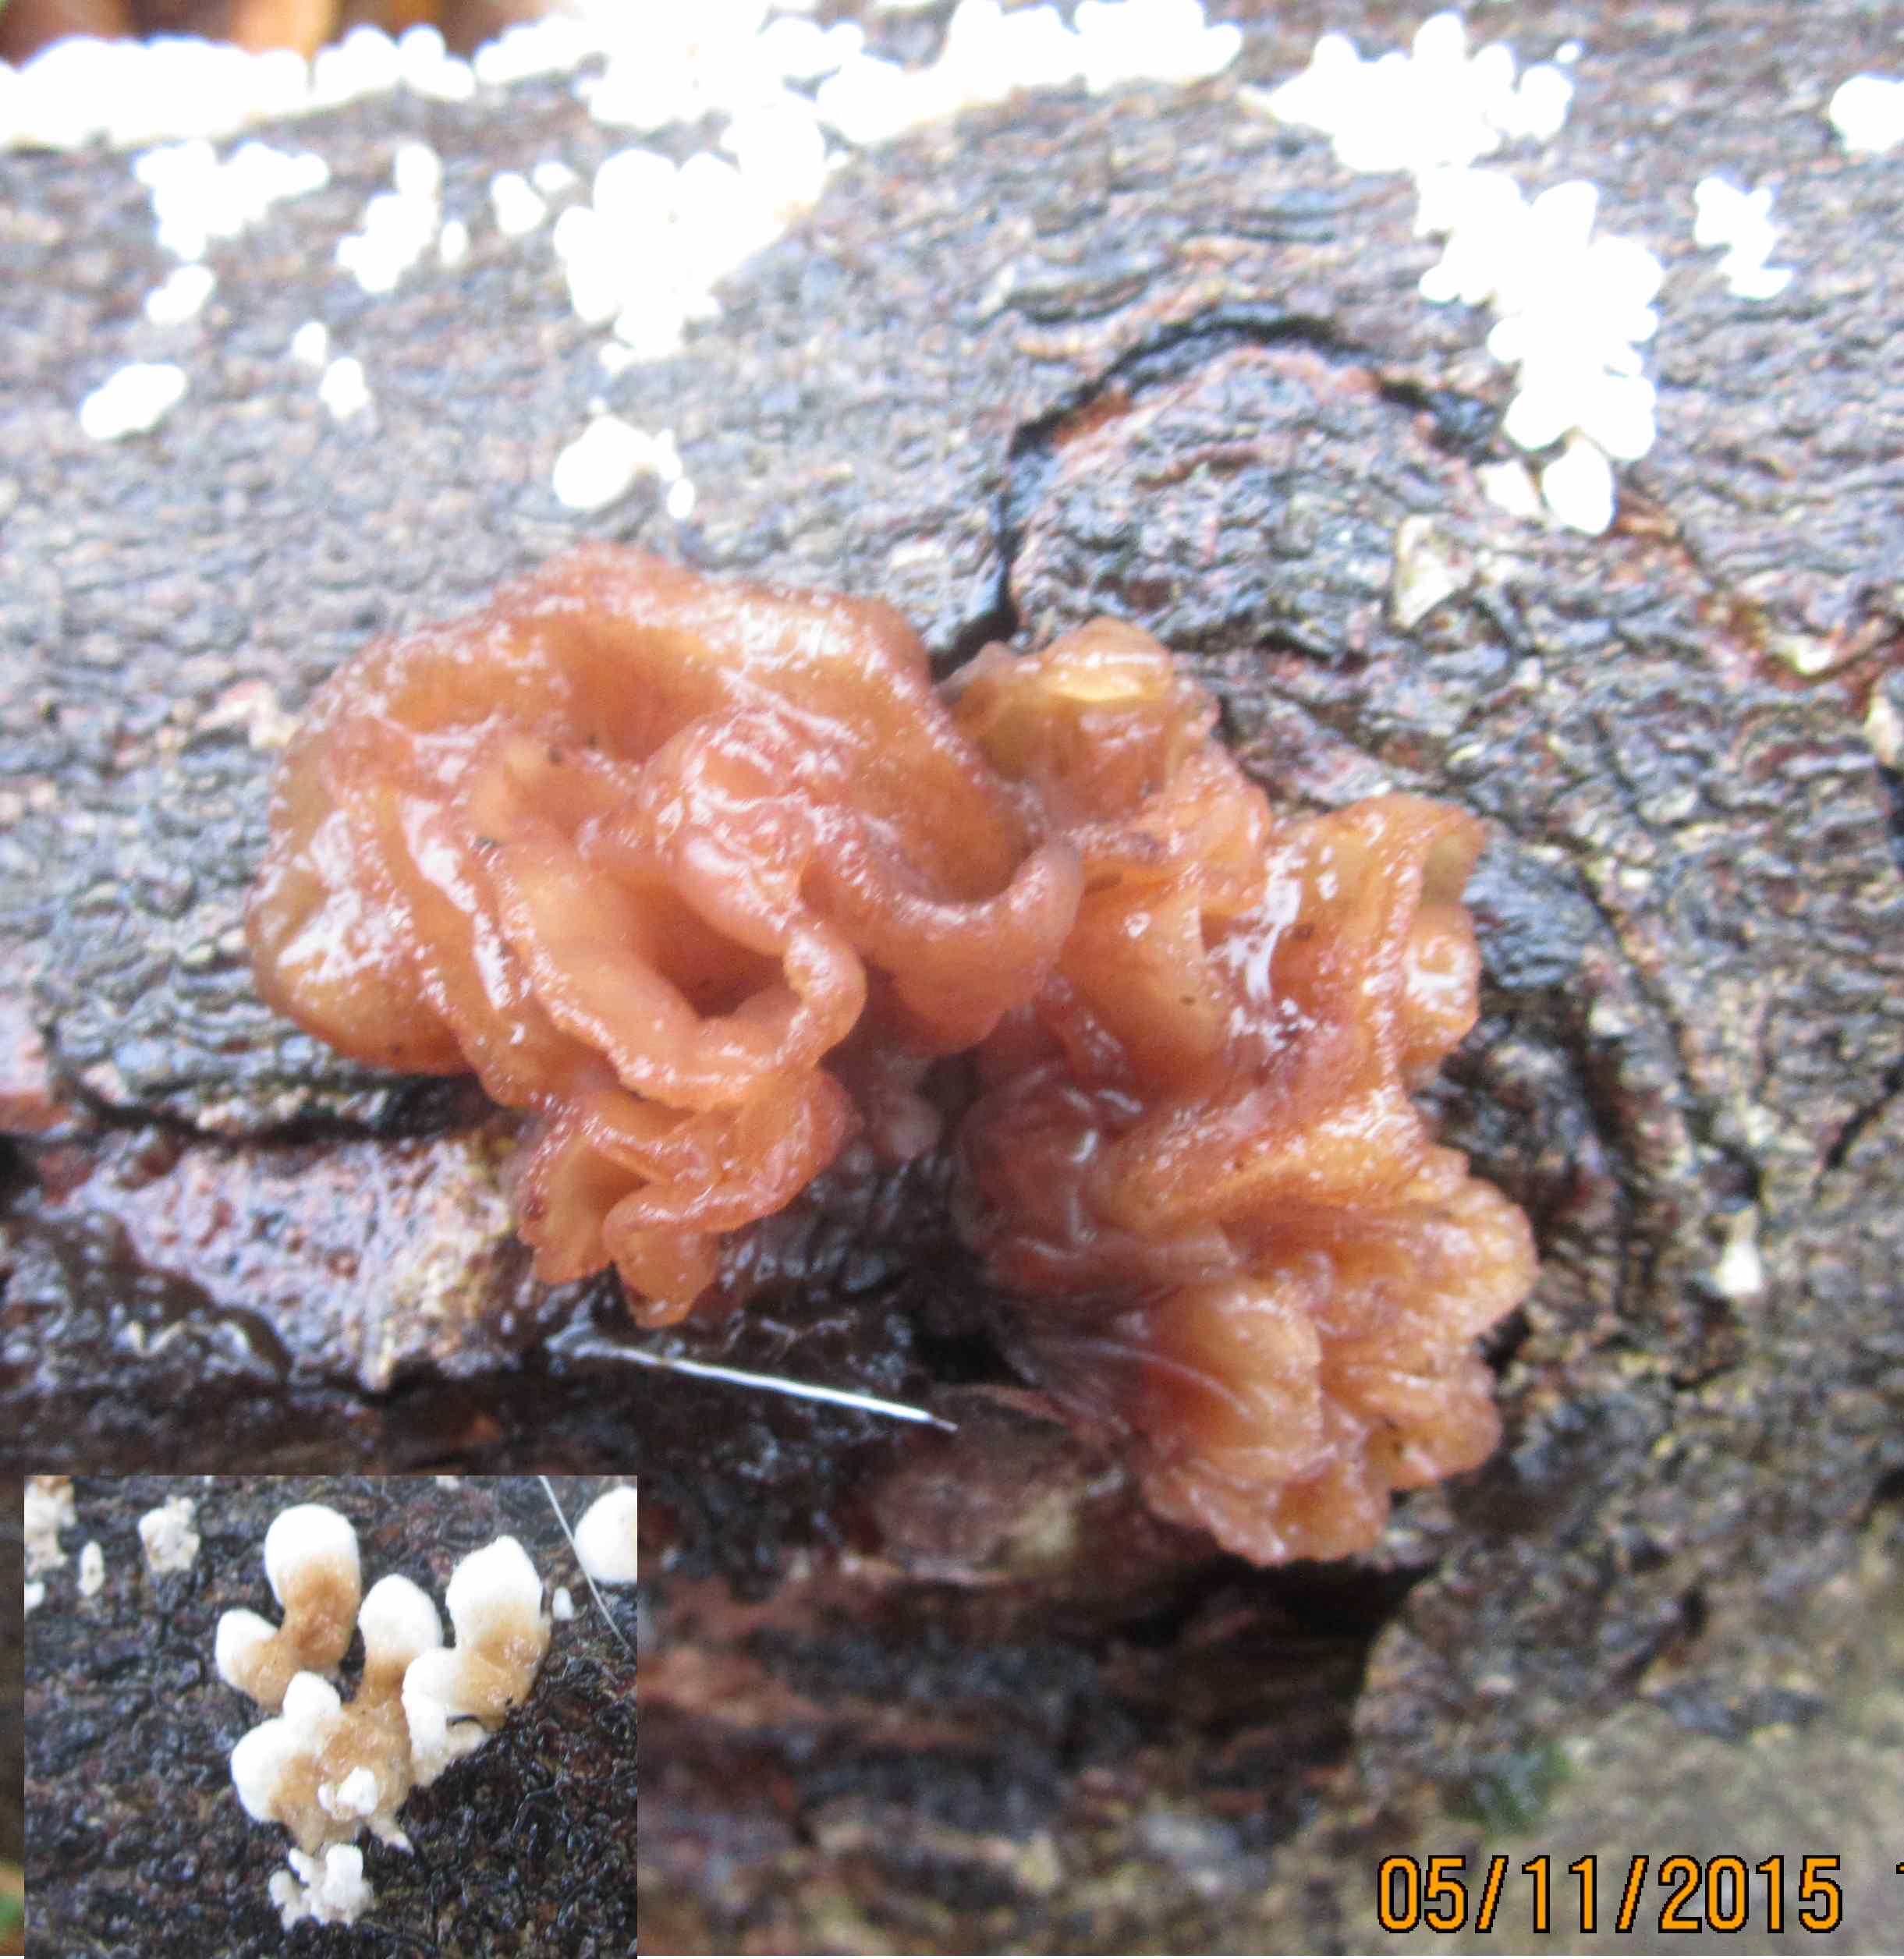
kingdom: Fungi
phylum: Basidiomycota
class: Tremellomycetes
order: Tremellales
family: Tremellaceae
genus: Phaeotremella
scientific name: Phaeotremella frondosa
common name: kæmpe-bævresvamp
